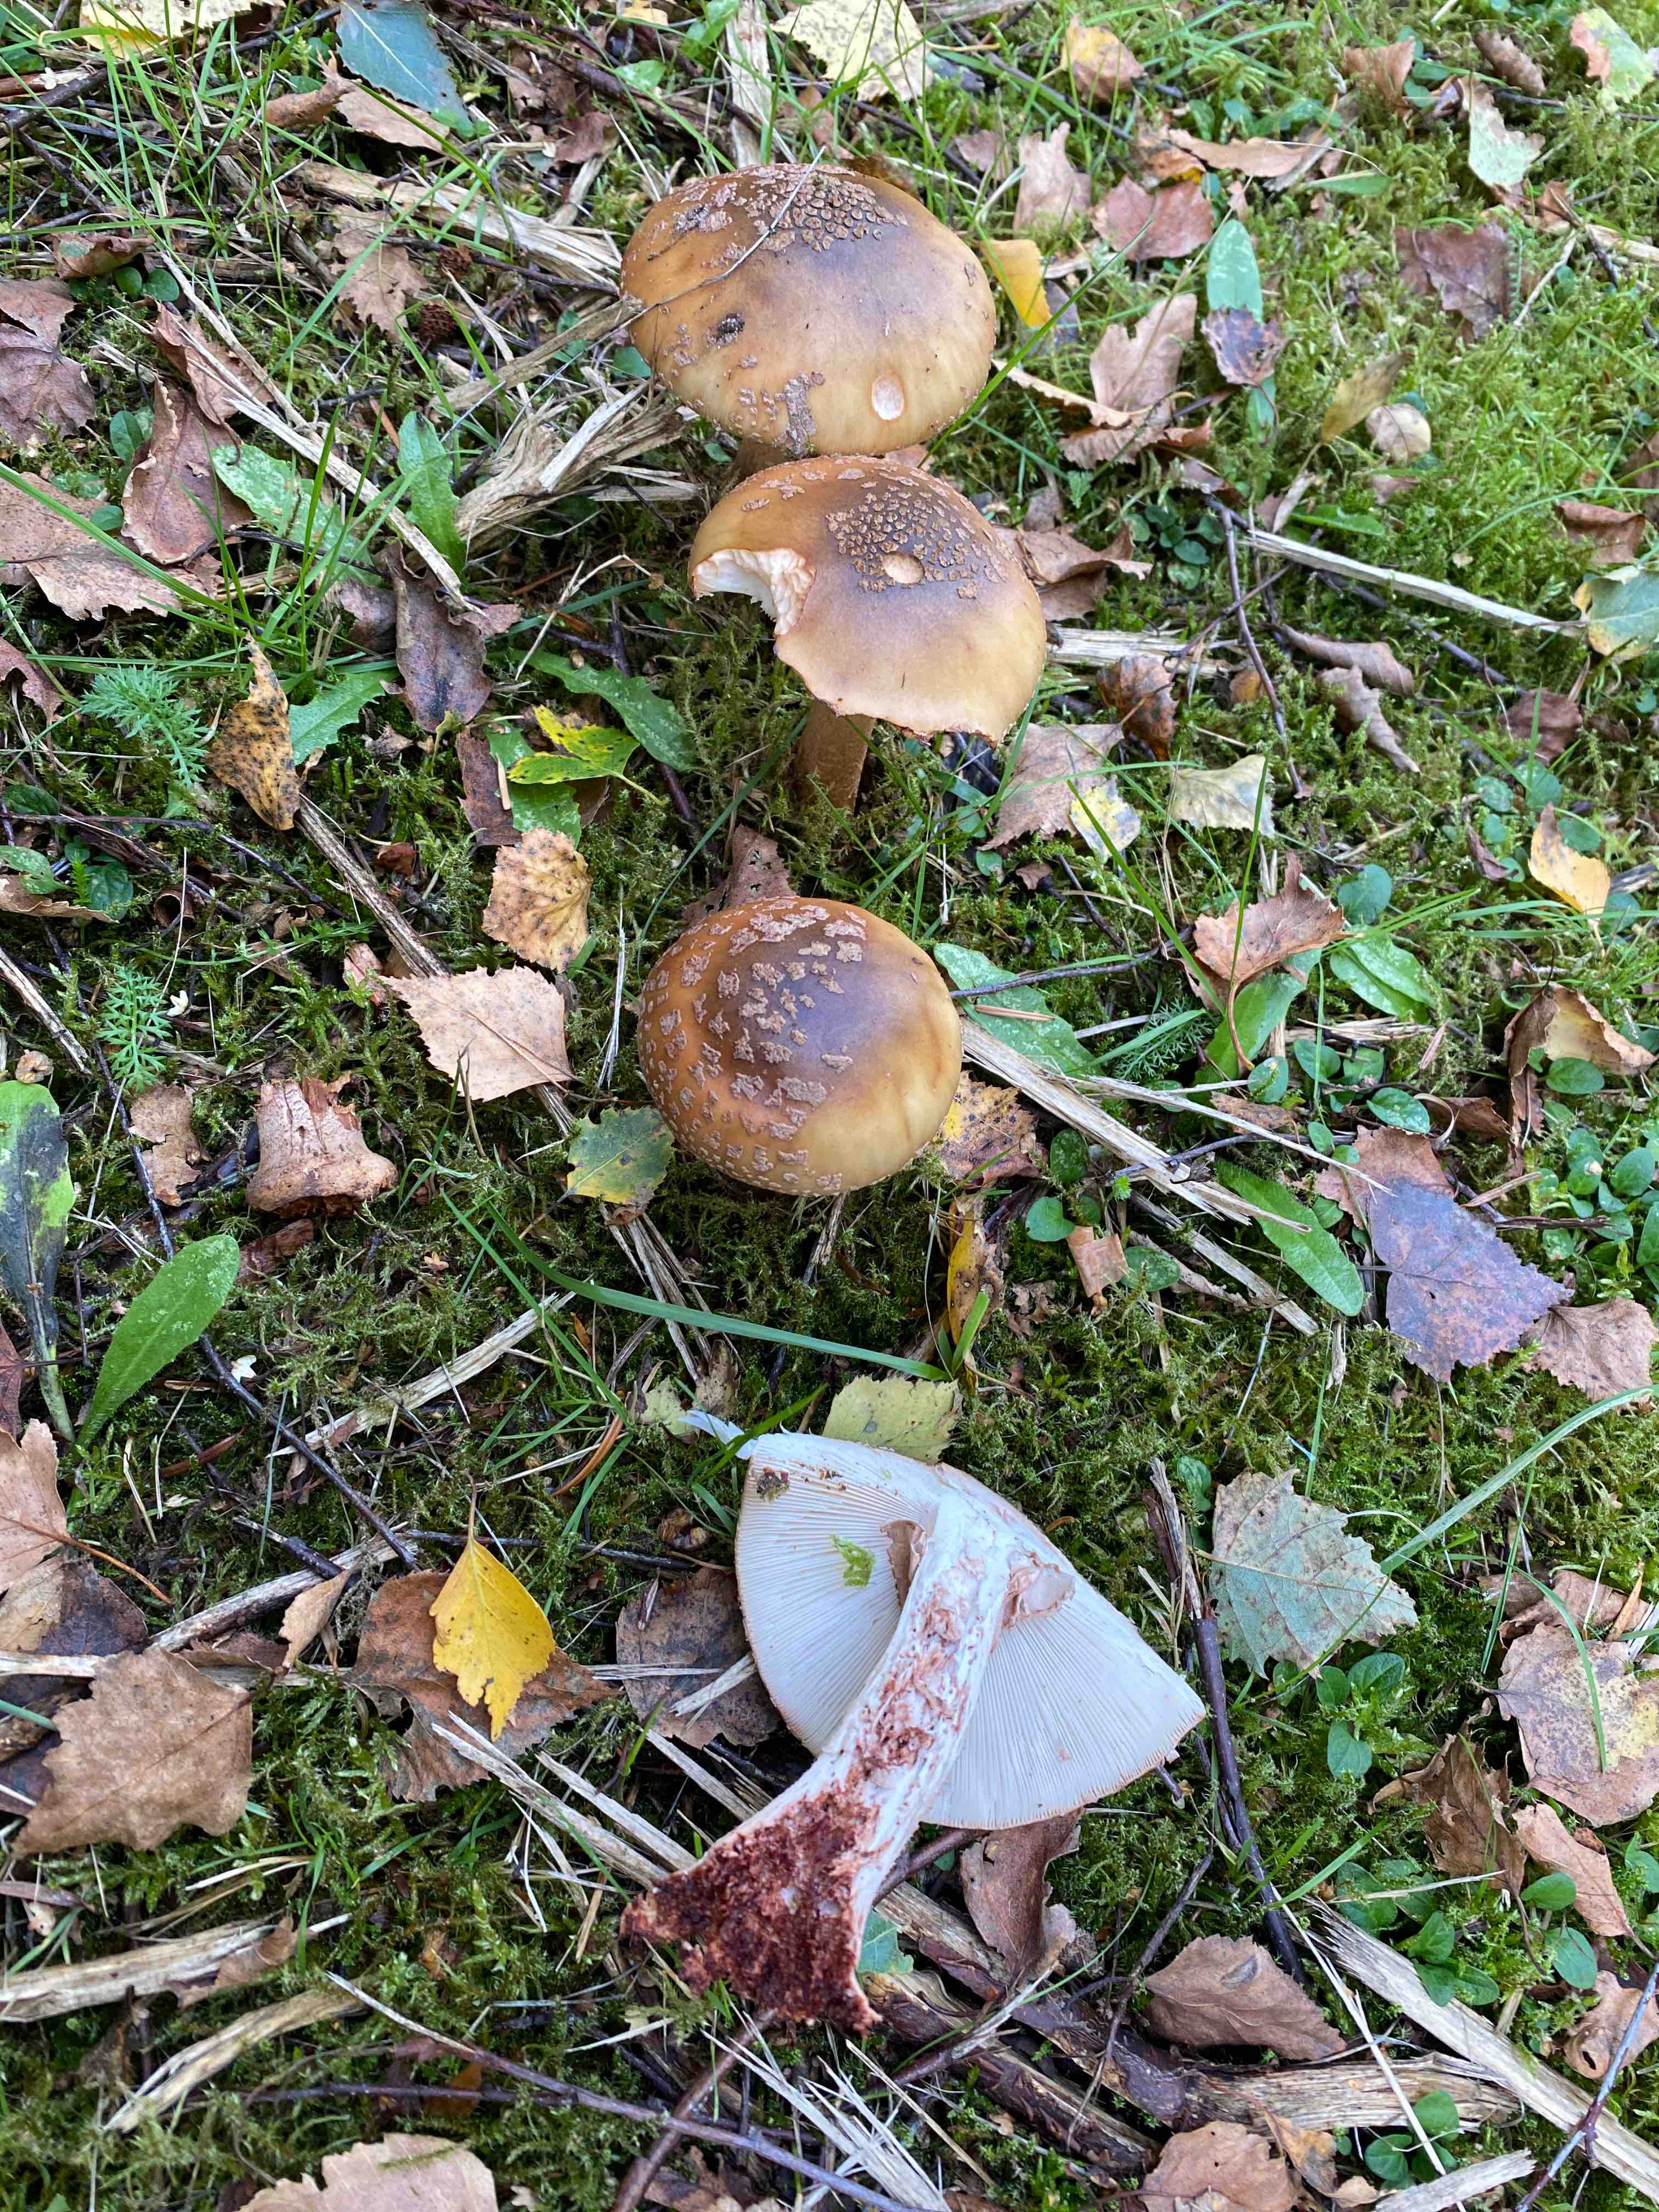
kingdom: Fungi
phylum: Basidiomycota
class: Agaricomycetes
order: Agaricales
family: Amanitaceae
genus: Amanita
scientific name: Amanita rubescens
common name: rødmende fluesvamp
